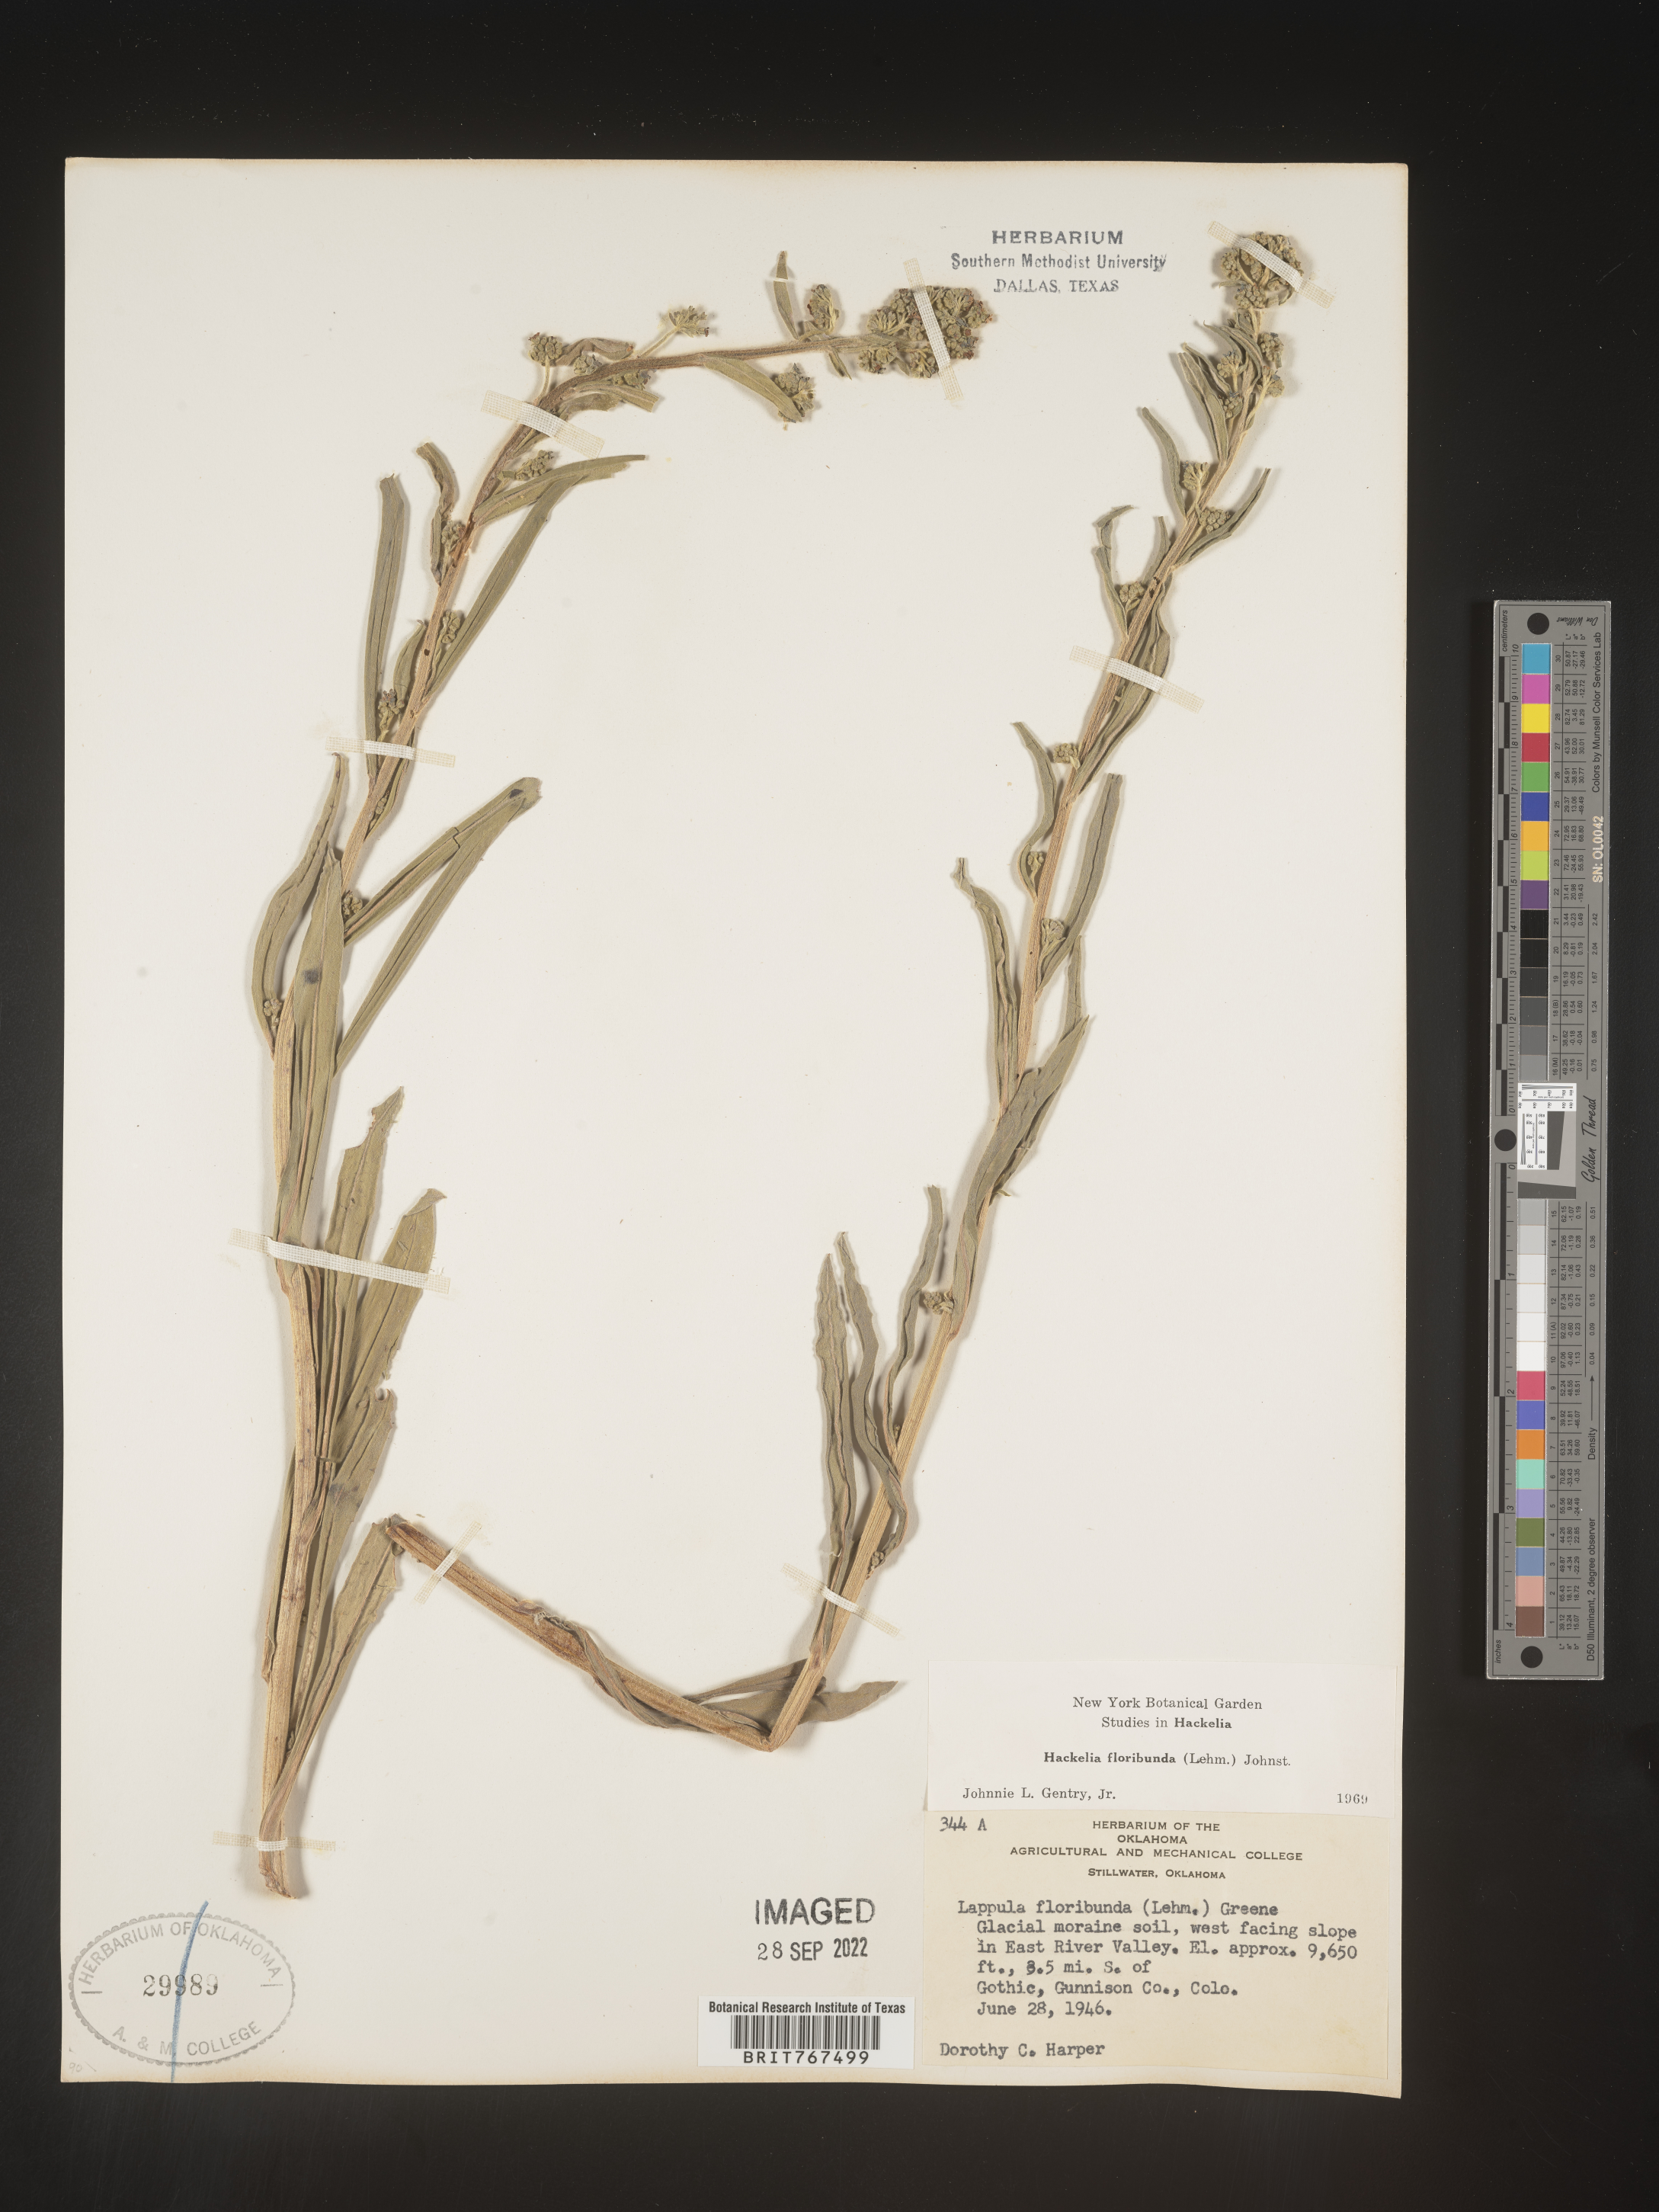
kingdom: Plantae
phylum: Tracheophyta
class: Magnoliopsida
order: Boraginales
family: Boraginaceae
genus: Hackelia
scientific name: Hackelia floribunda
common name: Large-flowered stickseed
